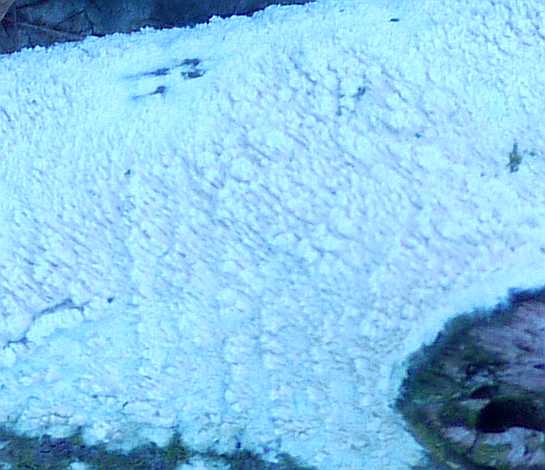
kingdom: Fungi
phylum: Basidiomycota
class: Agaricomycetes
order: Hymenochaetales
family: Schizoporaceae
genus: Schizopora
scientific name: Schizopora paradoxa
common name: hvid tandsvamp
